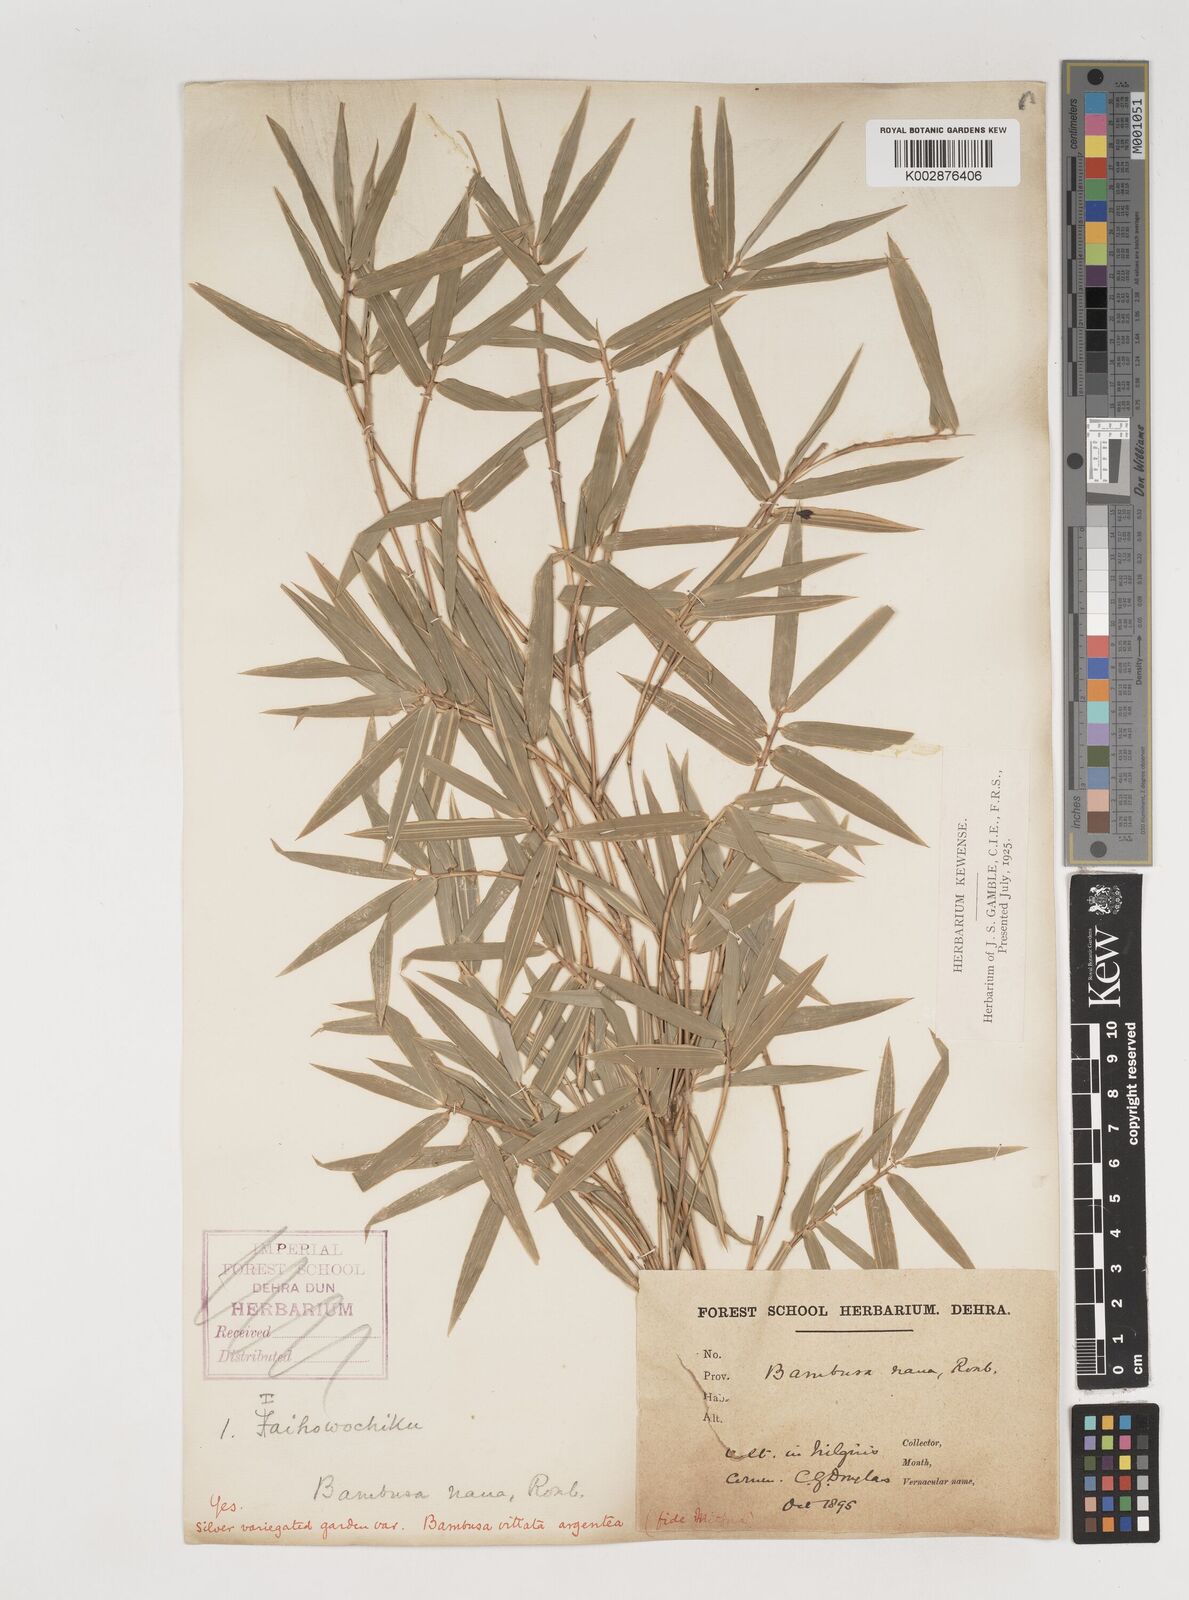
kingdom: Plantae
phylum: Tracheophyta
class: Liliopsida
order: Poales
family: Poaceae
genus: Bambusa
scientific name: Bambusa multiplex
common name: Hedge bamboo
